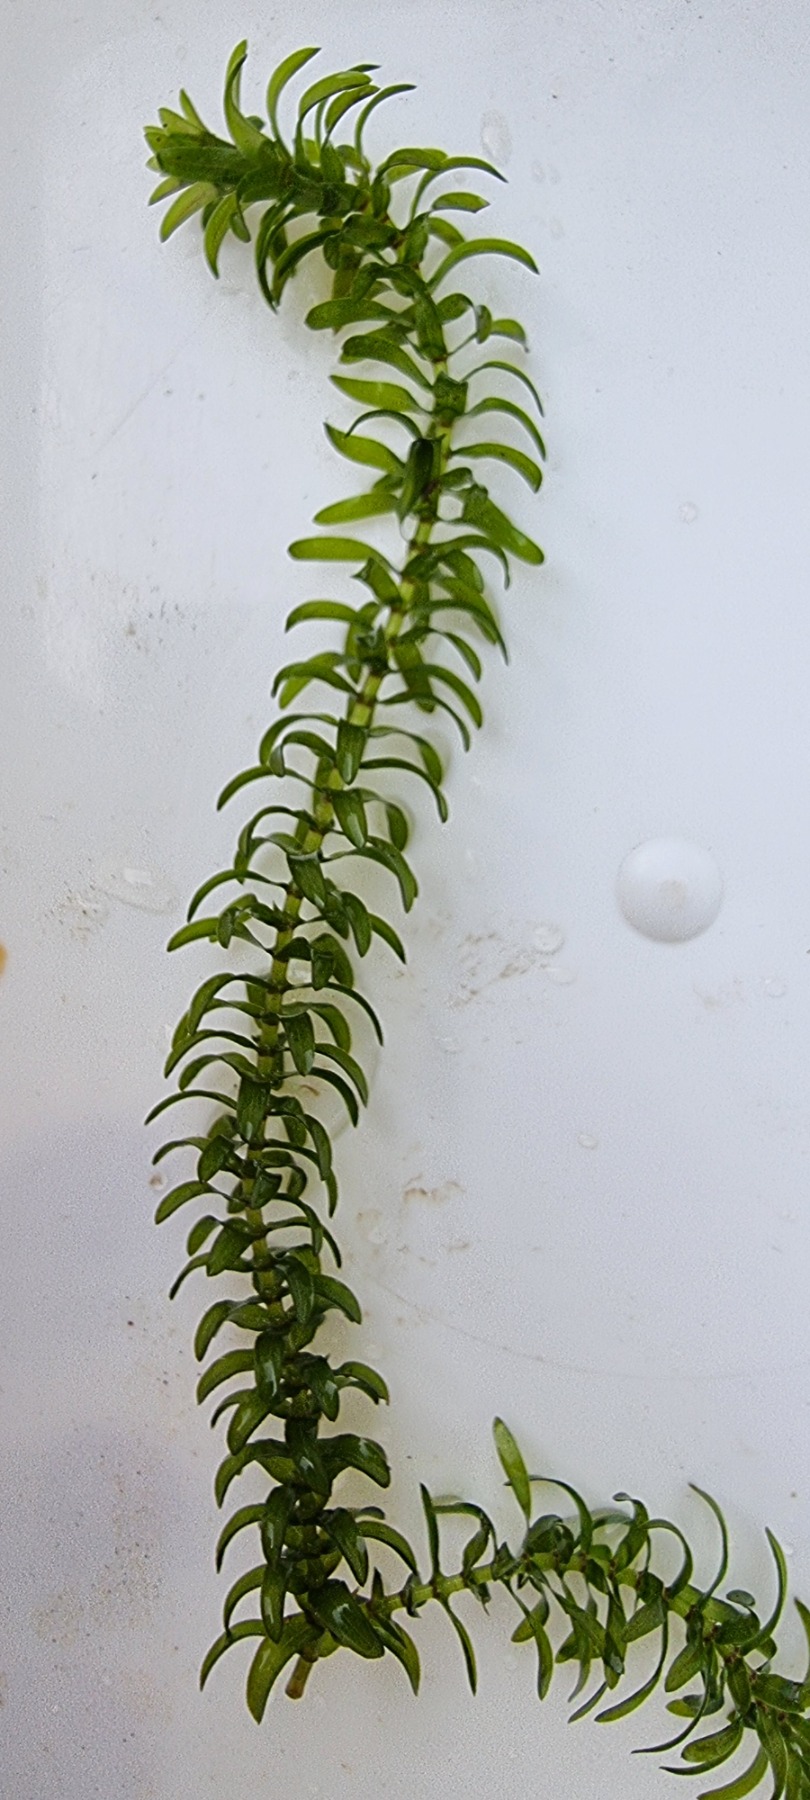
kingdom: Plantae
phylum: Tracheophyta
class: Liliopsida
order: Alismatales
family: Hydrocharitaceae
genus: Elodea
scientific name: Elodea canadensis
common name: Vandpest
